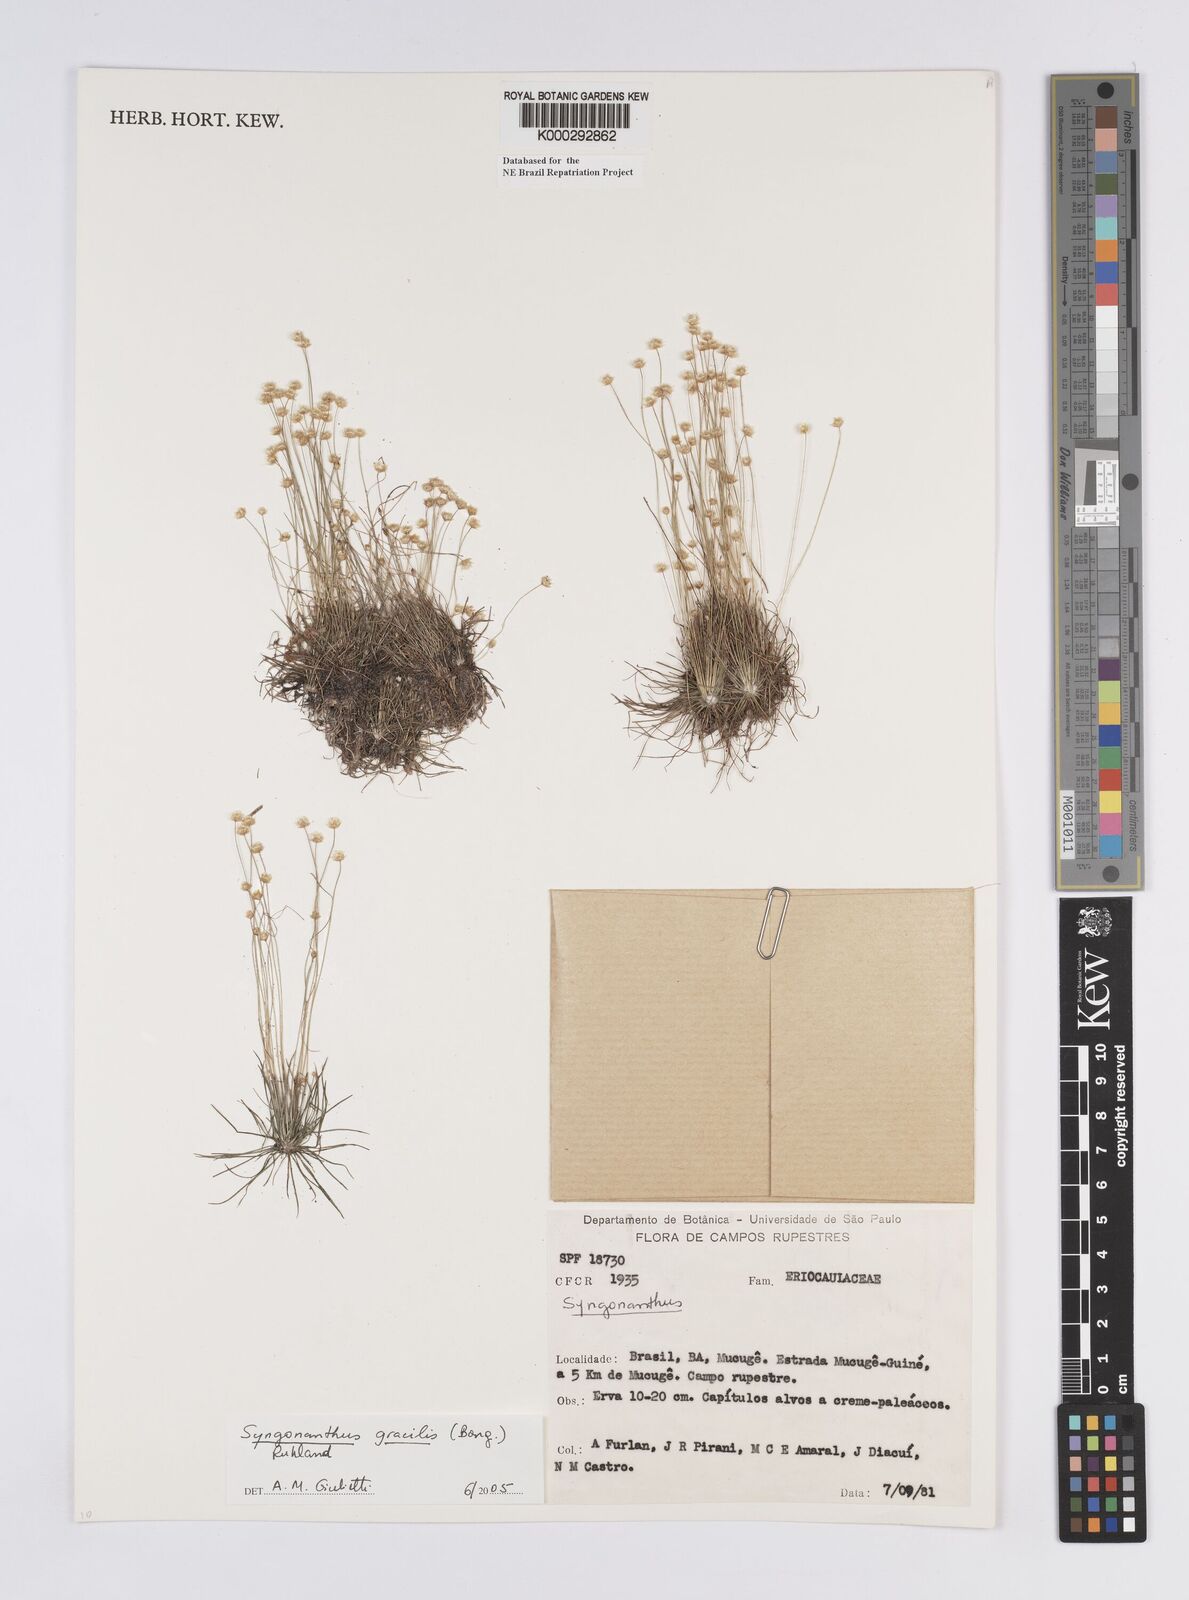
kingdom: Plantae
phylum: Tracheophyta
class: Liliopsida
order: Poales
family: Eriocaulaceae
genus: Syngonanthus
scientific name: Syngonanthus
